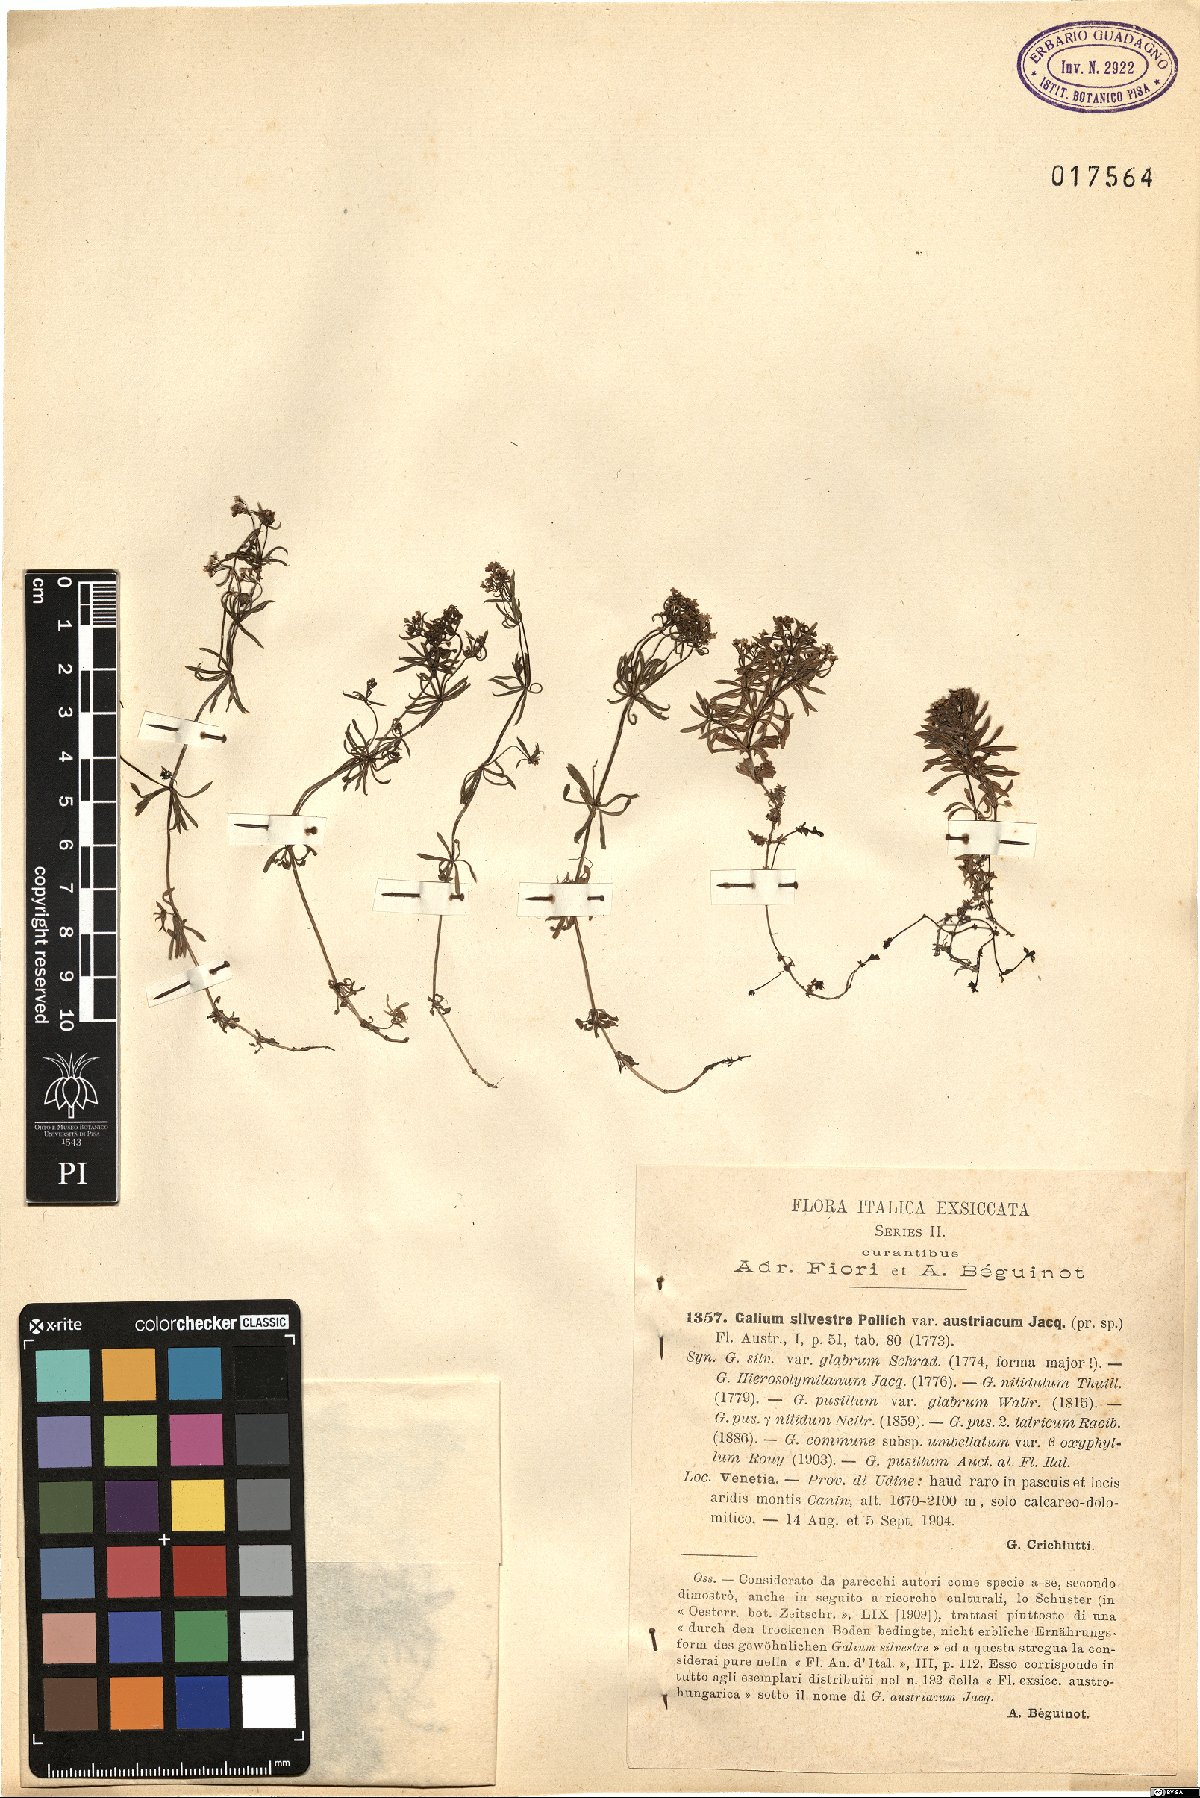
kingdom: Plantae
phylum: Tracheophyta
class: Magnoliopsida
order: Gentianales
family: Rubiaceae
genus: Galium
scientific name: Galium austriacum
